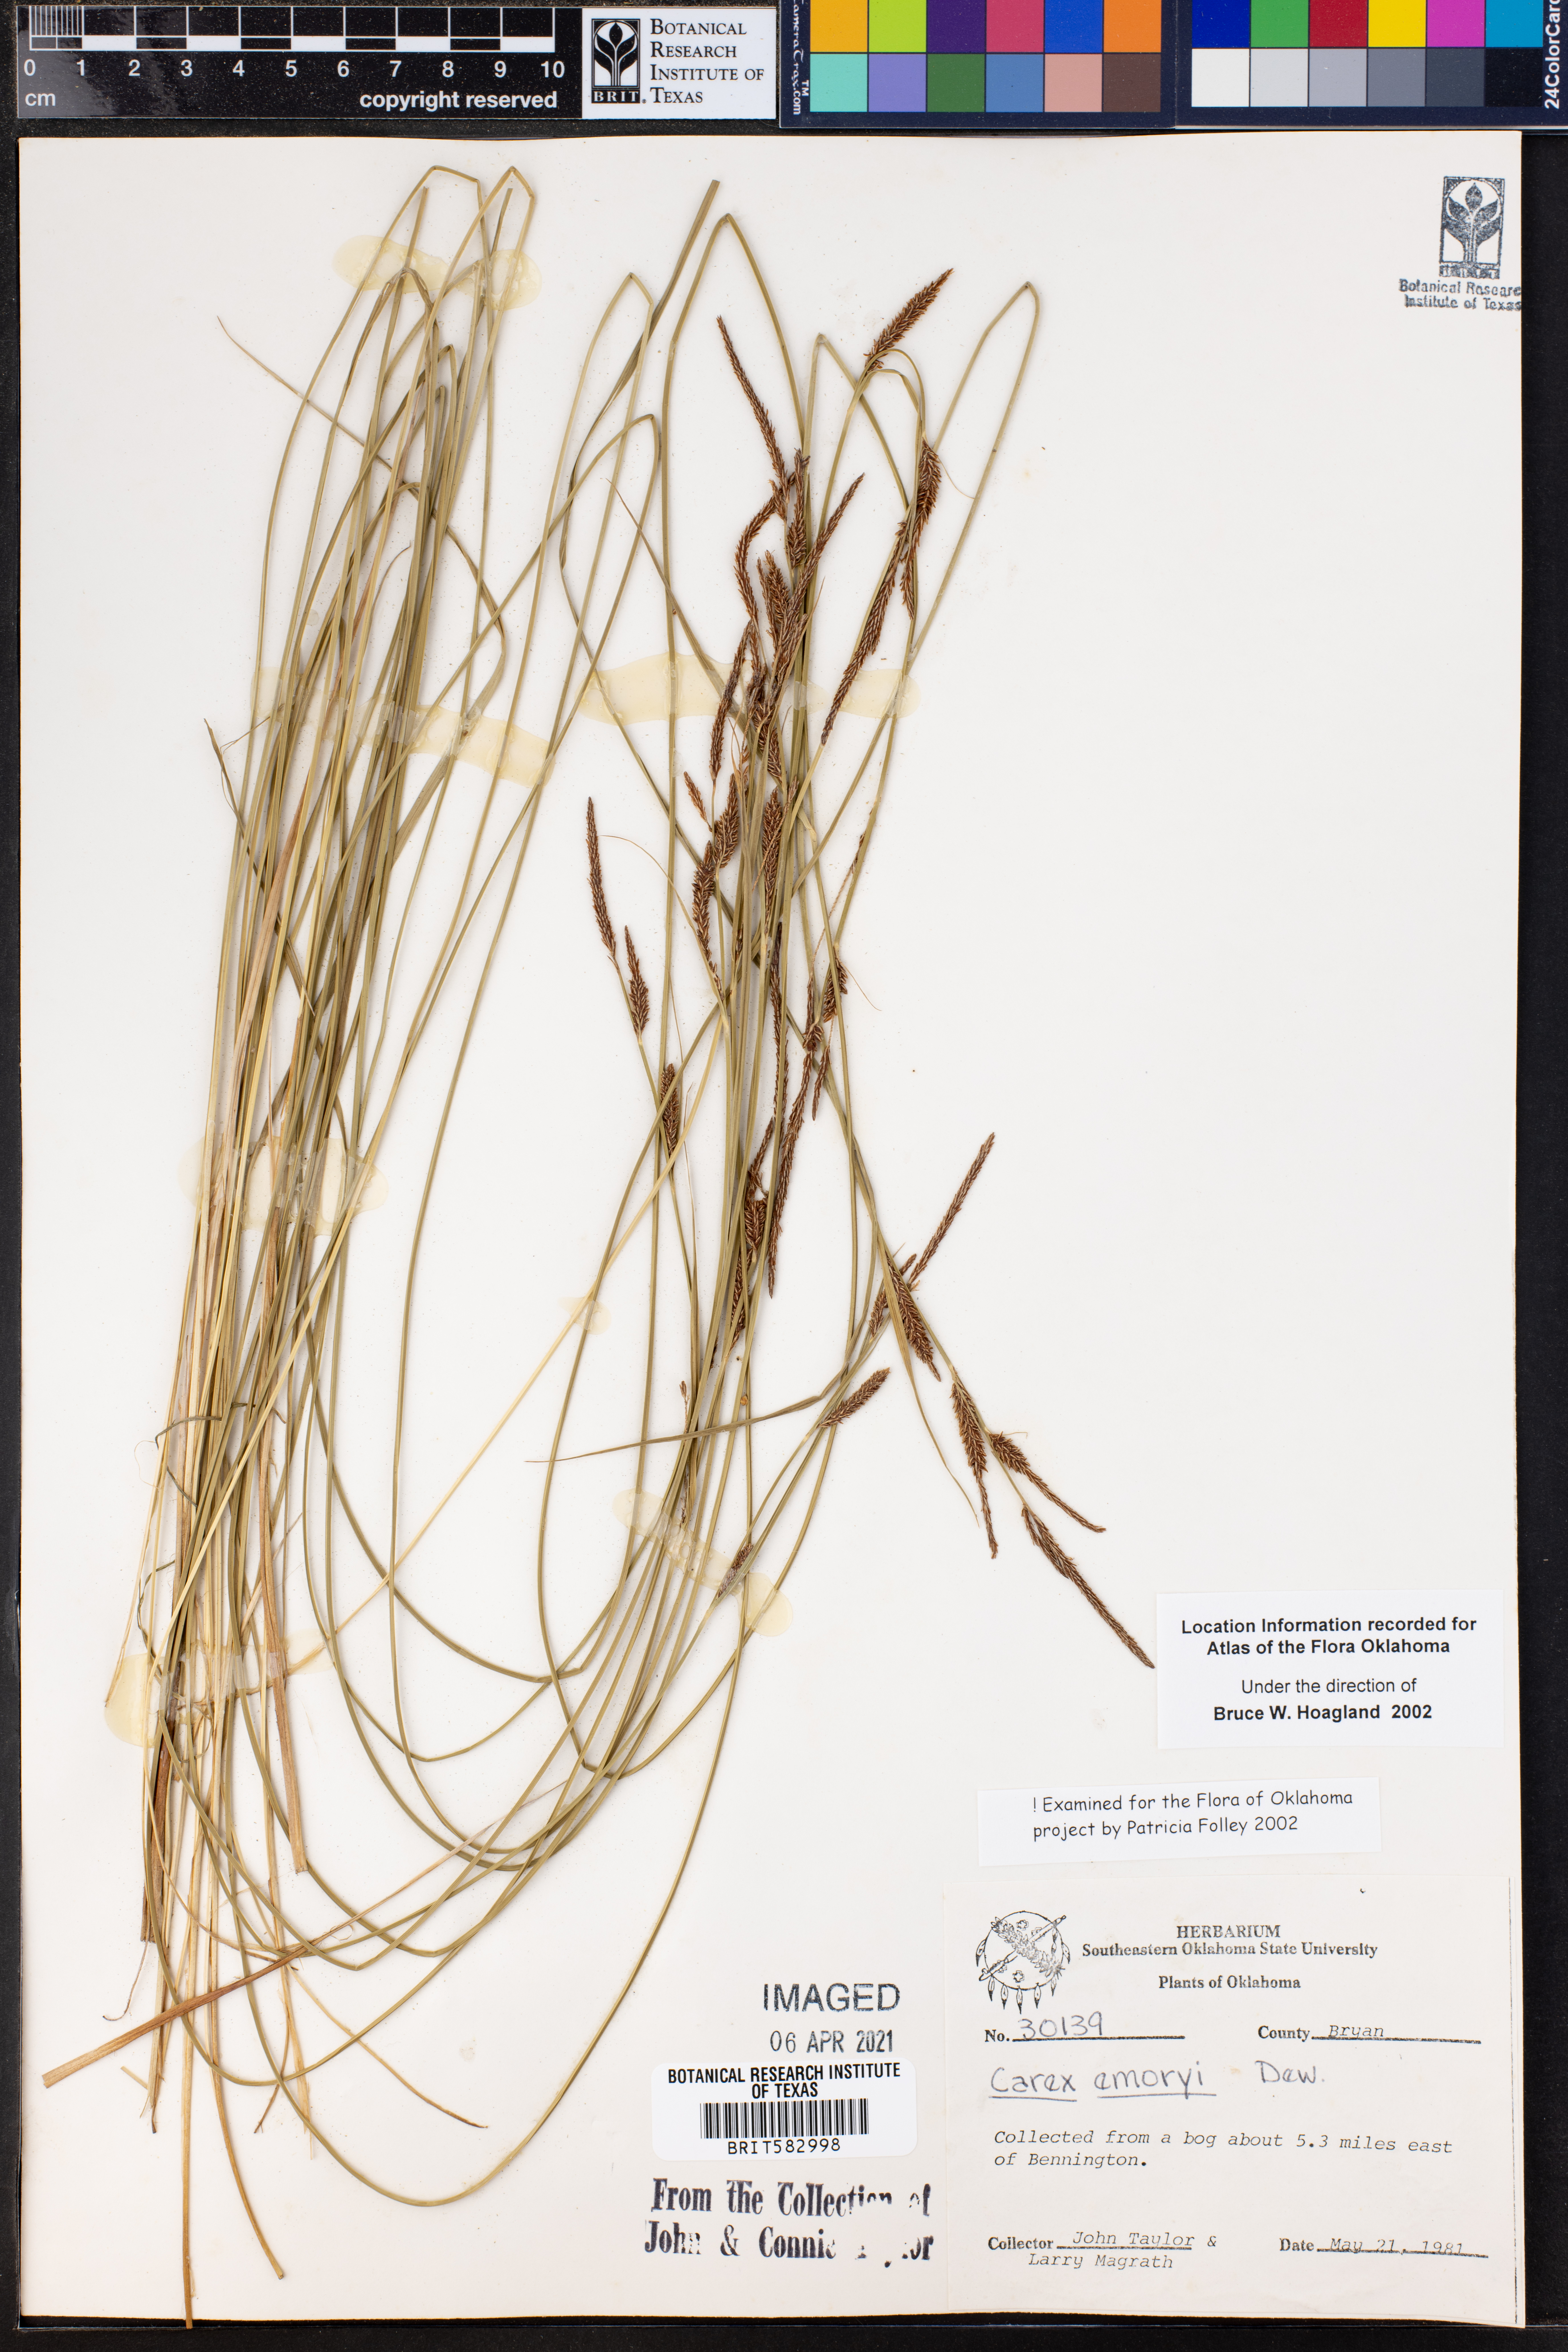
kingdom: Plantae
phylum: Tracheophyta
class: Liliopsida
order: Poales
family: Cyperaceae
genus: Carex
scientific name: Carex emoryi
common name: Emory's sedge
